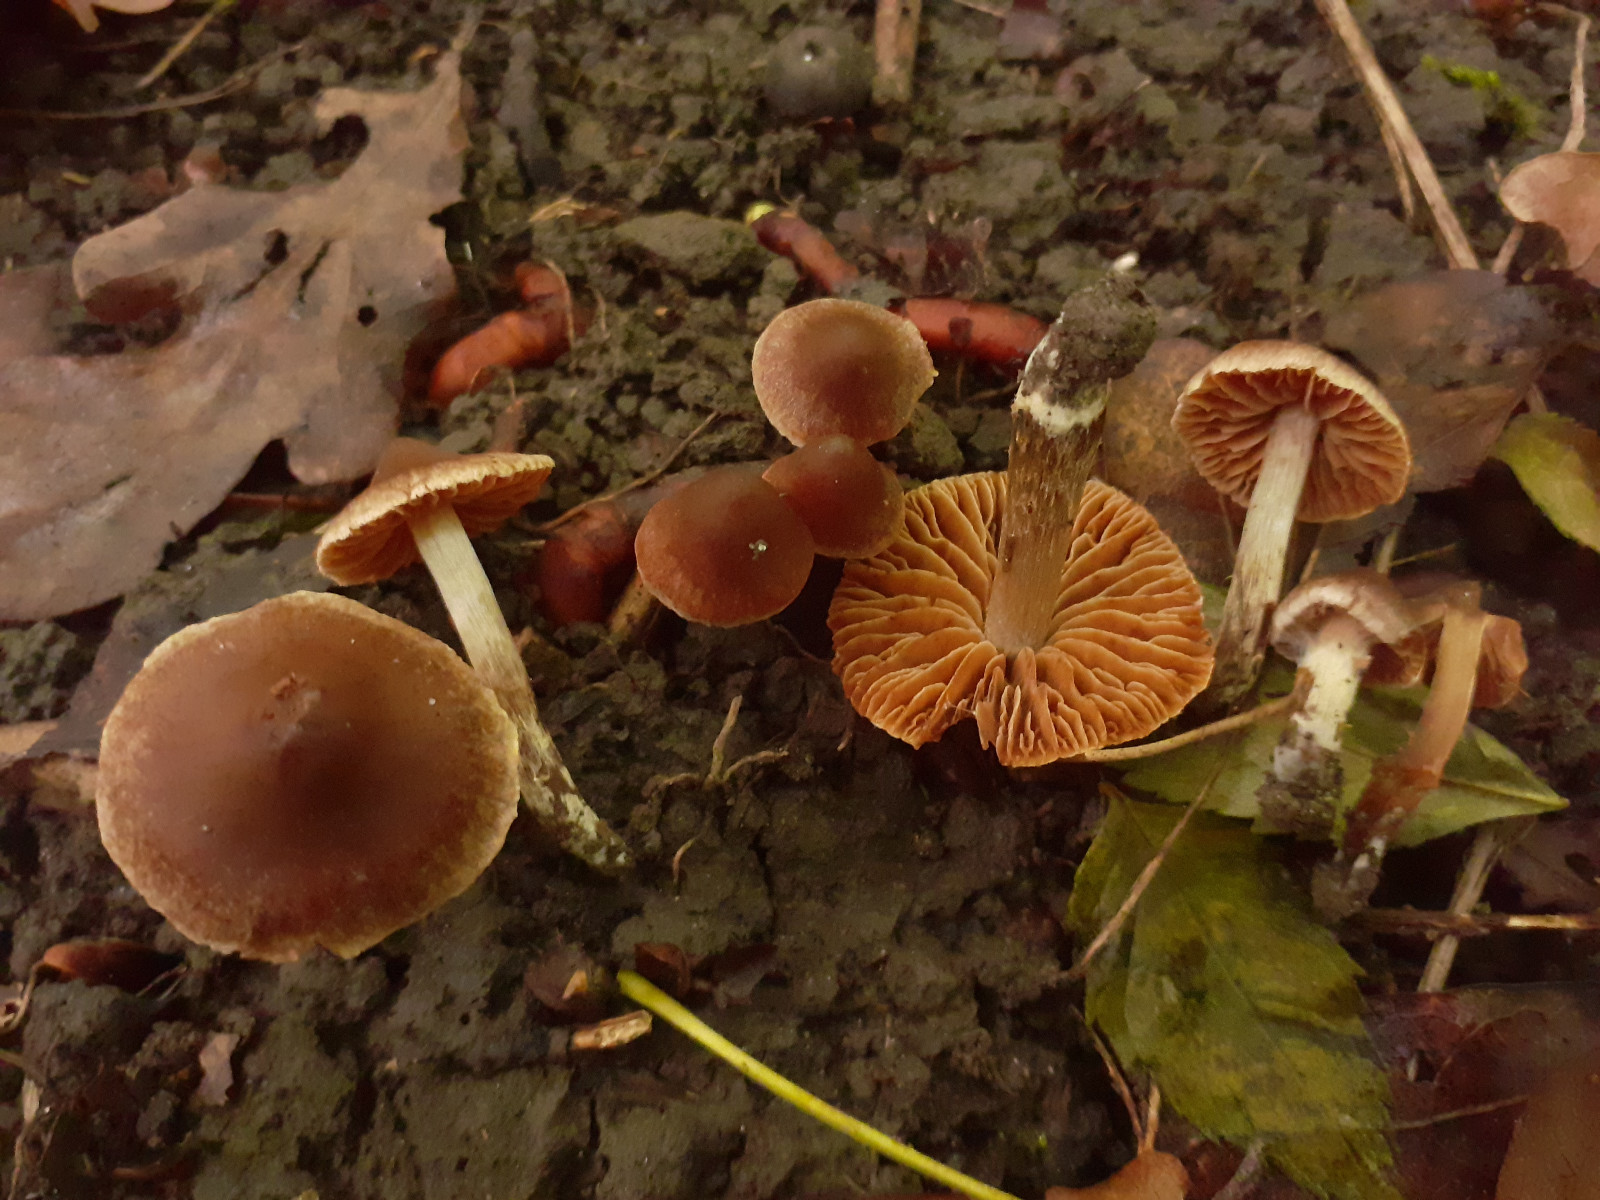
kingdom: Fungi
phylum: Basidiomycota
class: Agaricomycetes
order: Agaricales
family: Cortinariaceae
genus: Cortinarius
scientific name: Cortinarius megacystidiosus
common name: lavbæltet slørhat
